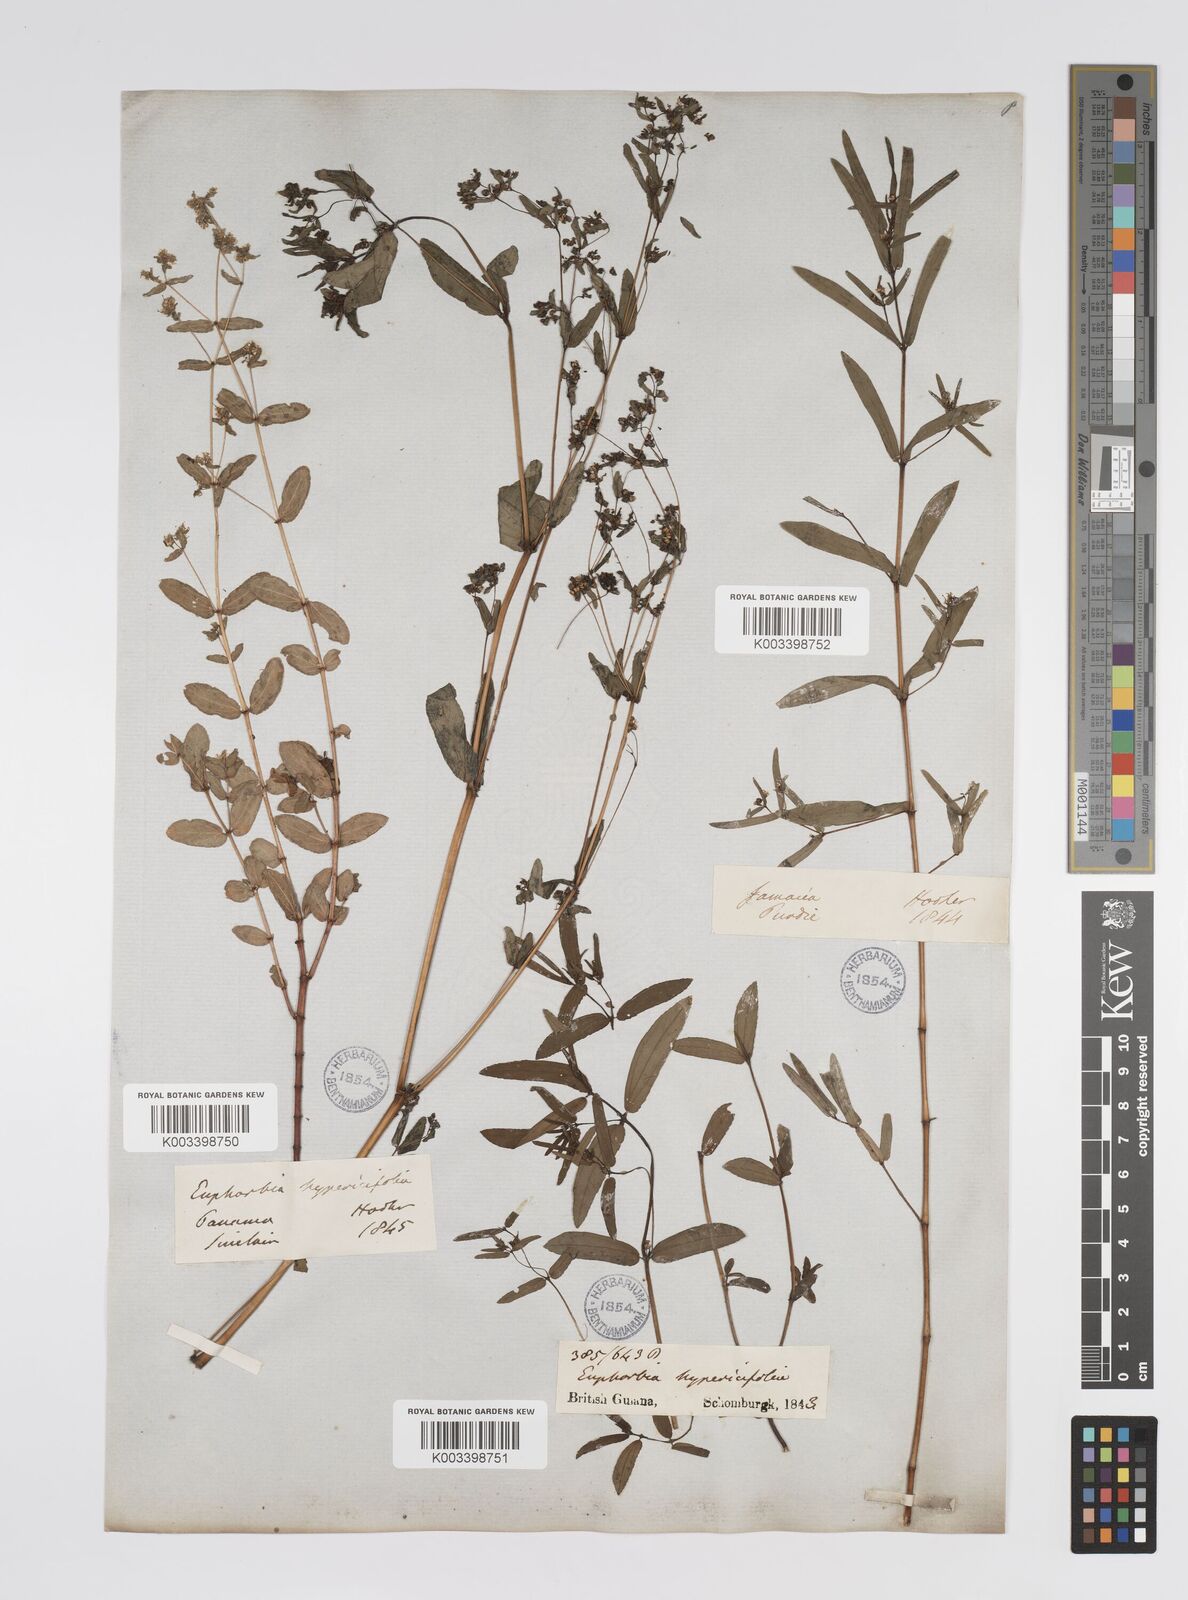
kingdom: Plantae
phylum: Tracheophyta
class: Magnoliopsida
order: Malpighiales
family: Euphorbiaceae
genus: Euphorbia
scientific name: Euphorbia
